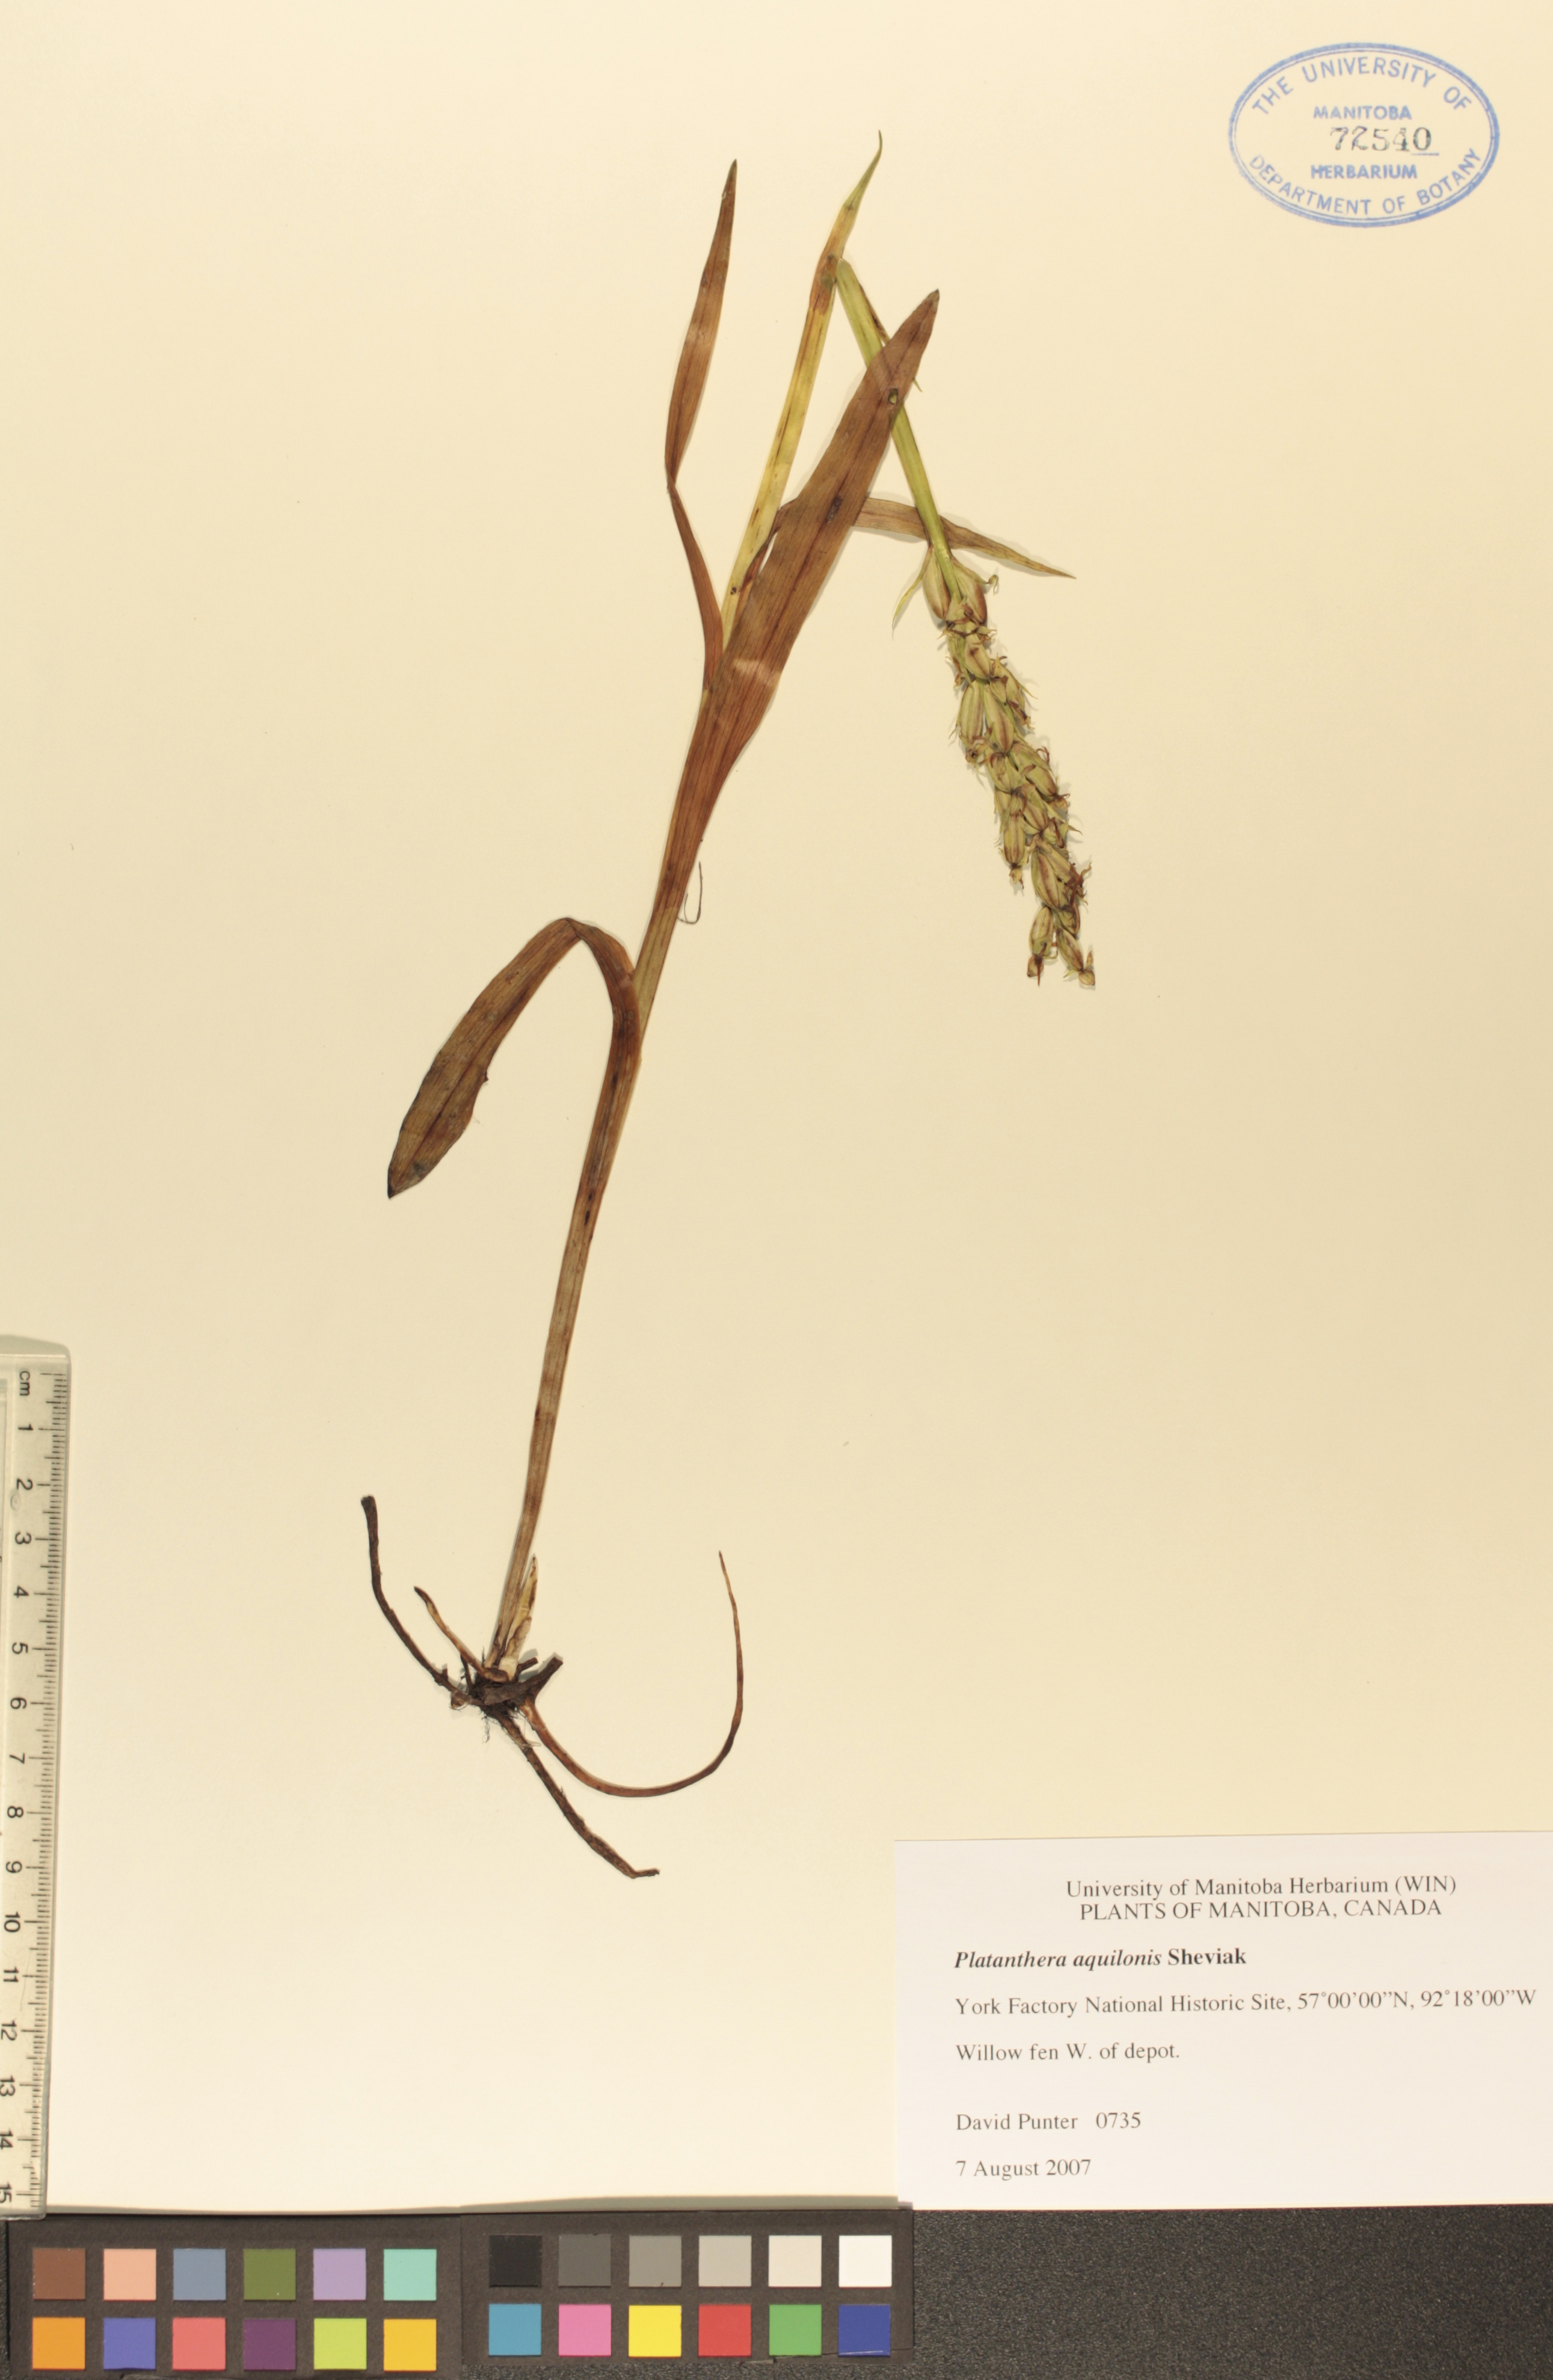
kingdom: Plantae
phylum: Tracheophyta
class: Liliopsida
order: Asparagales
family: Orchidaceae
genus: Platanthera
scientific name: Platanthera aquilonis
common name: Northern green orchid
